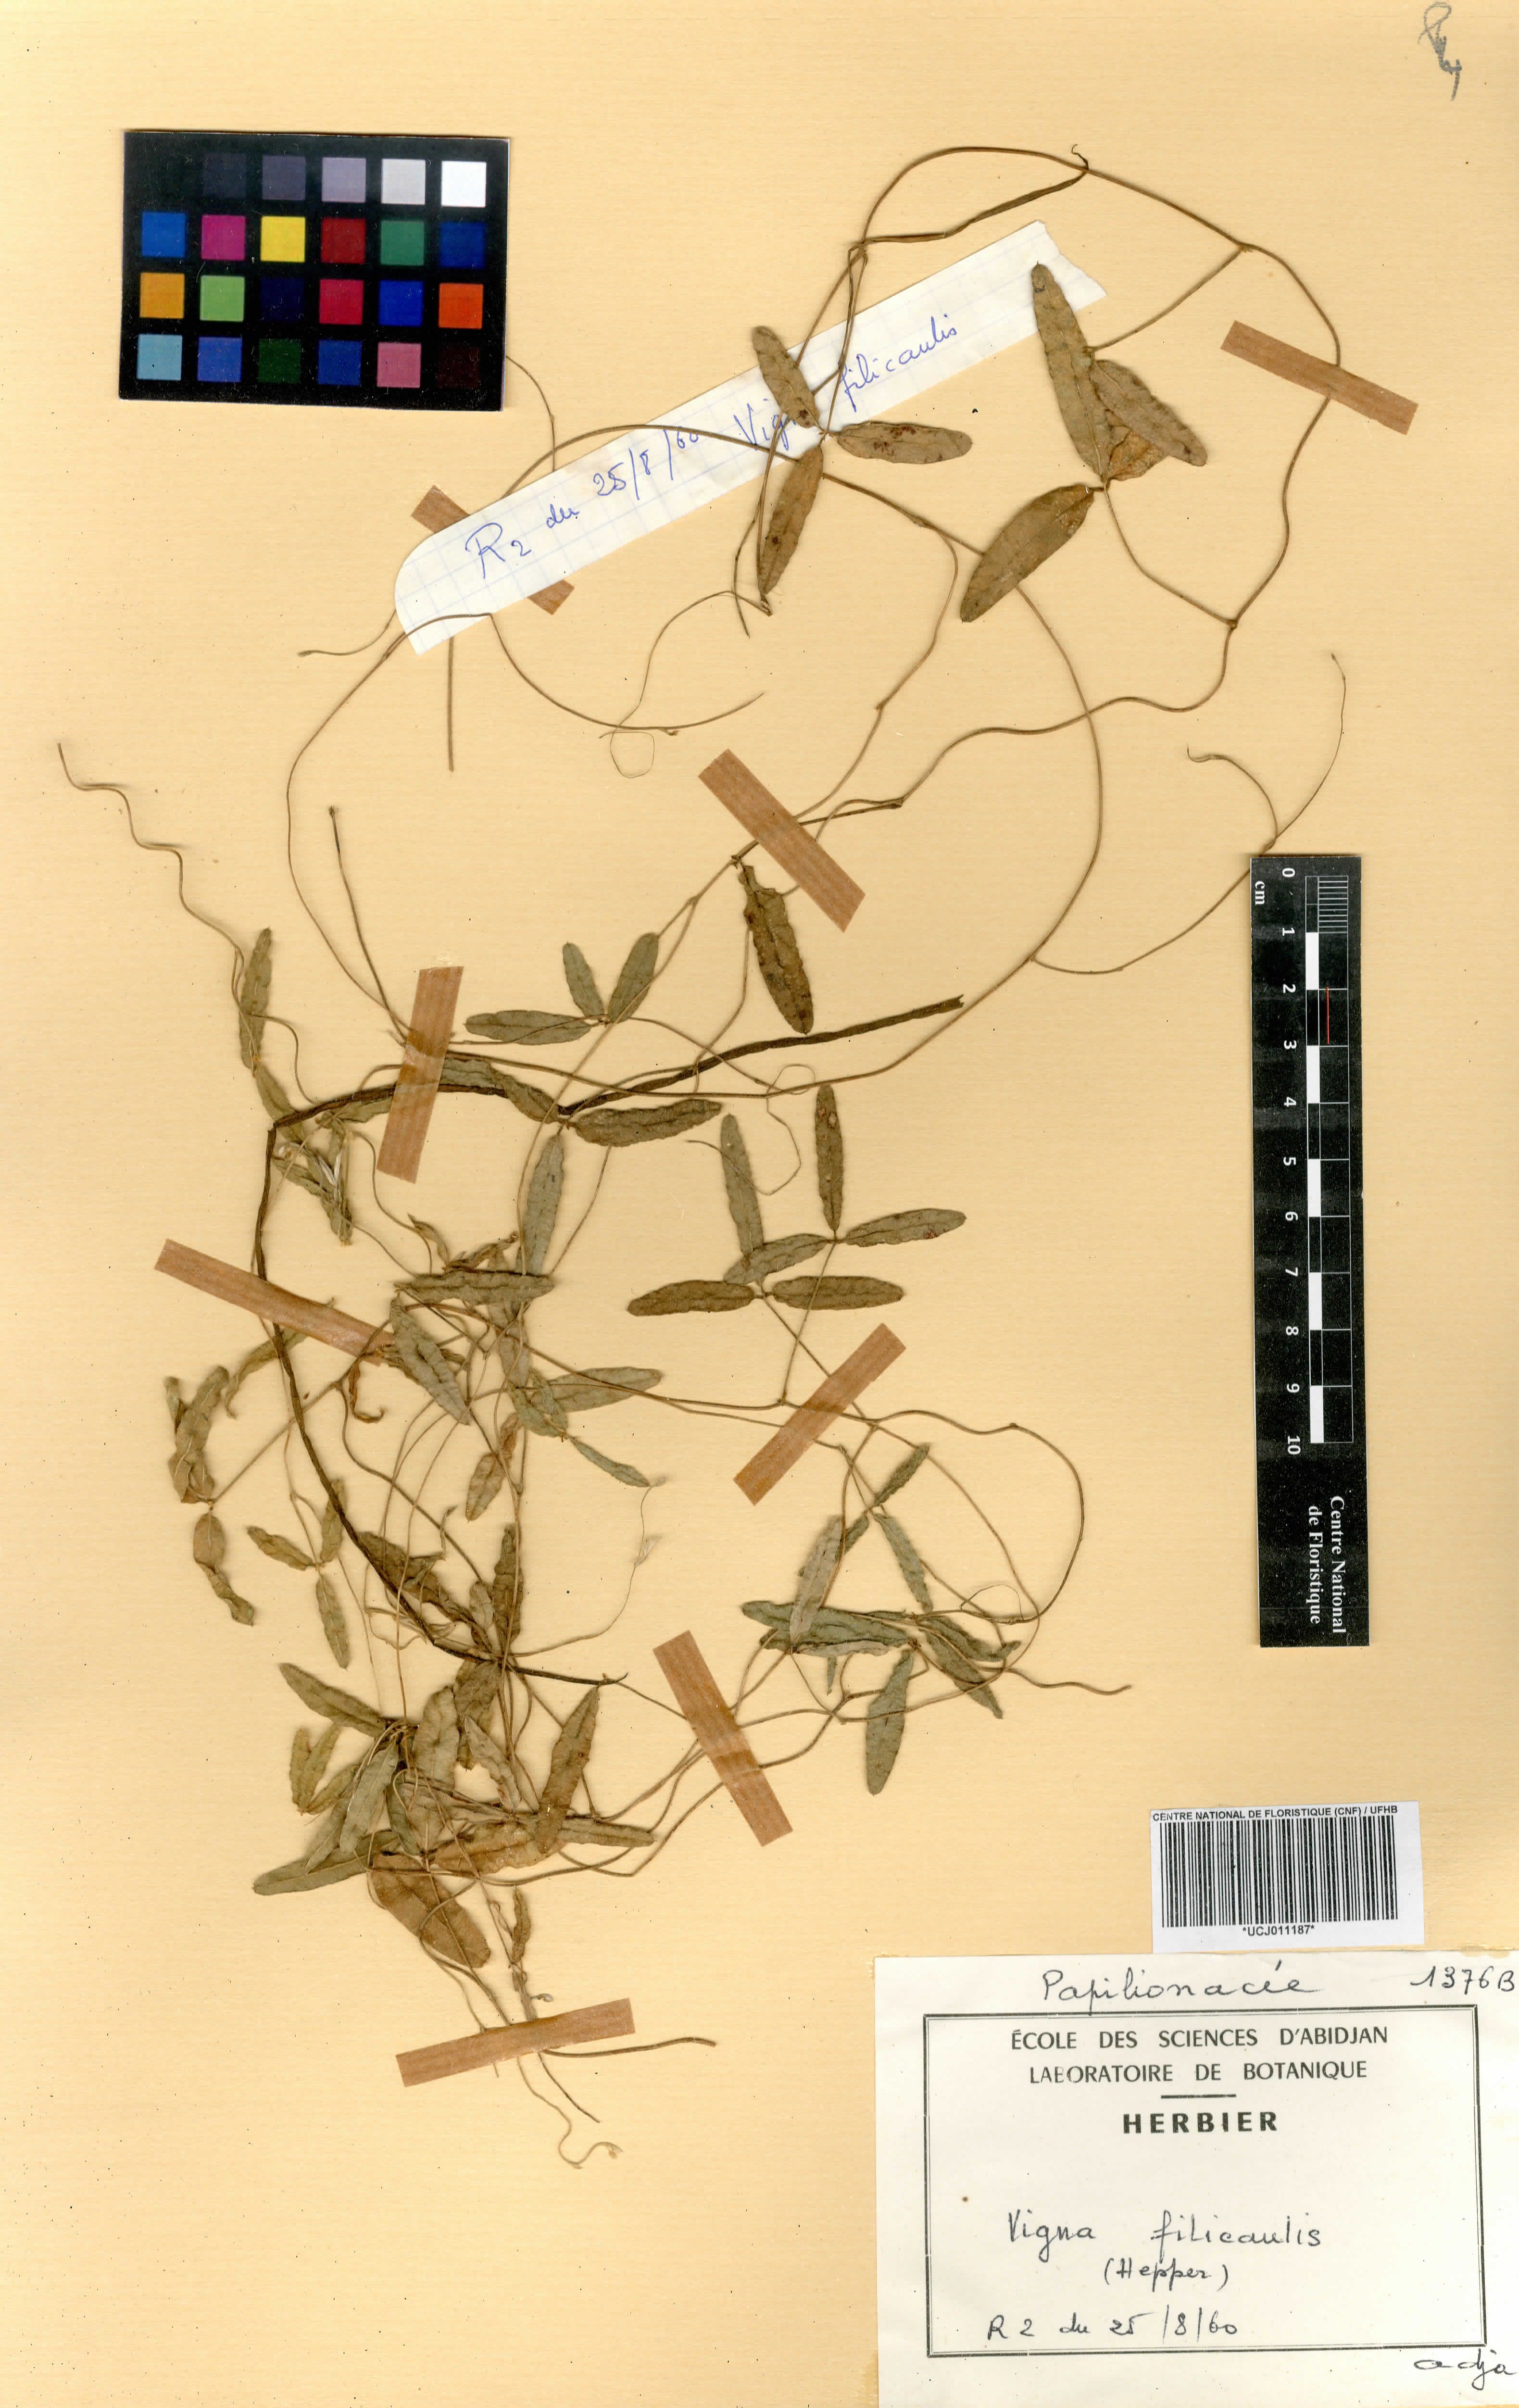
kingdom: Plantae
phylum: Tracheophyta
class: Magnoliopsida
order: Fabales
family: Fabaceae
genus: Vigna
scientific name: Vigna filicaulis
